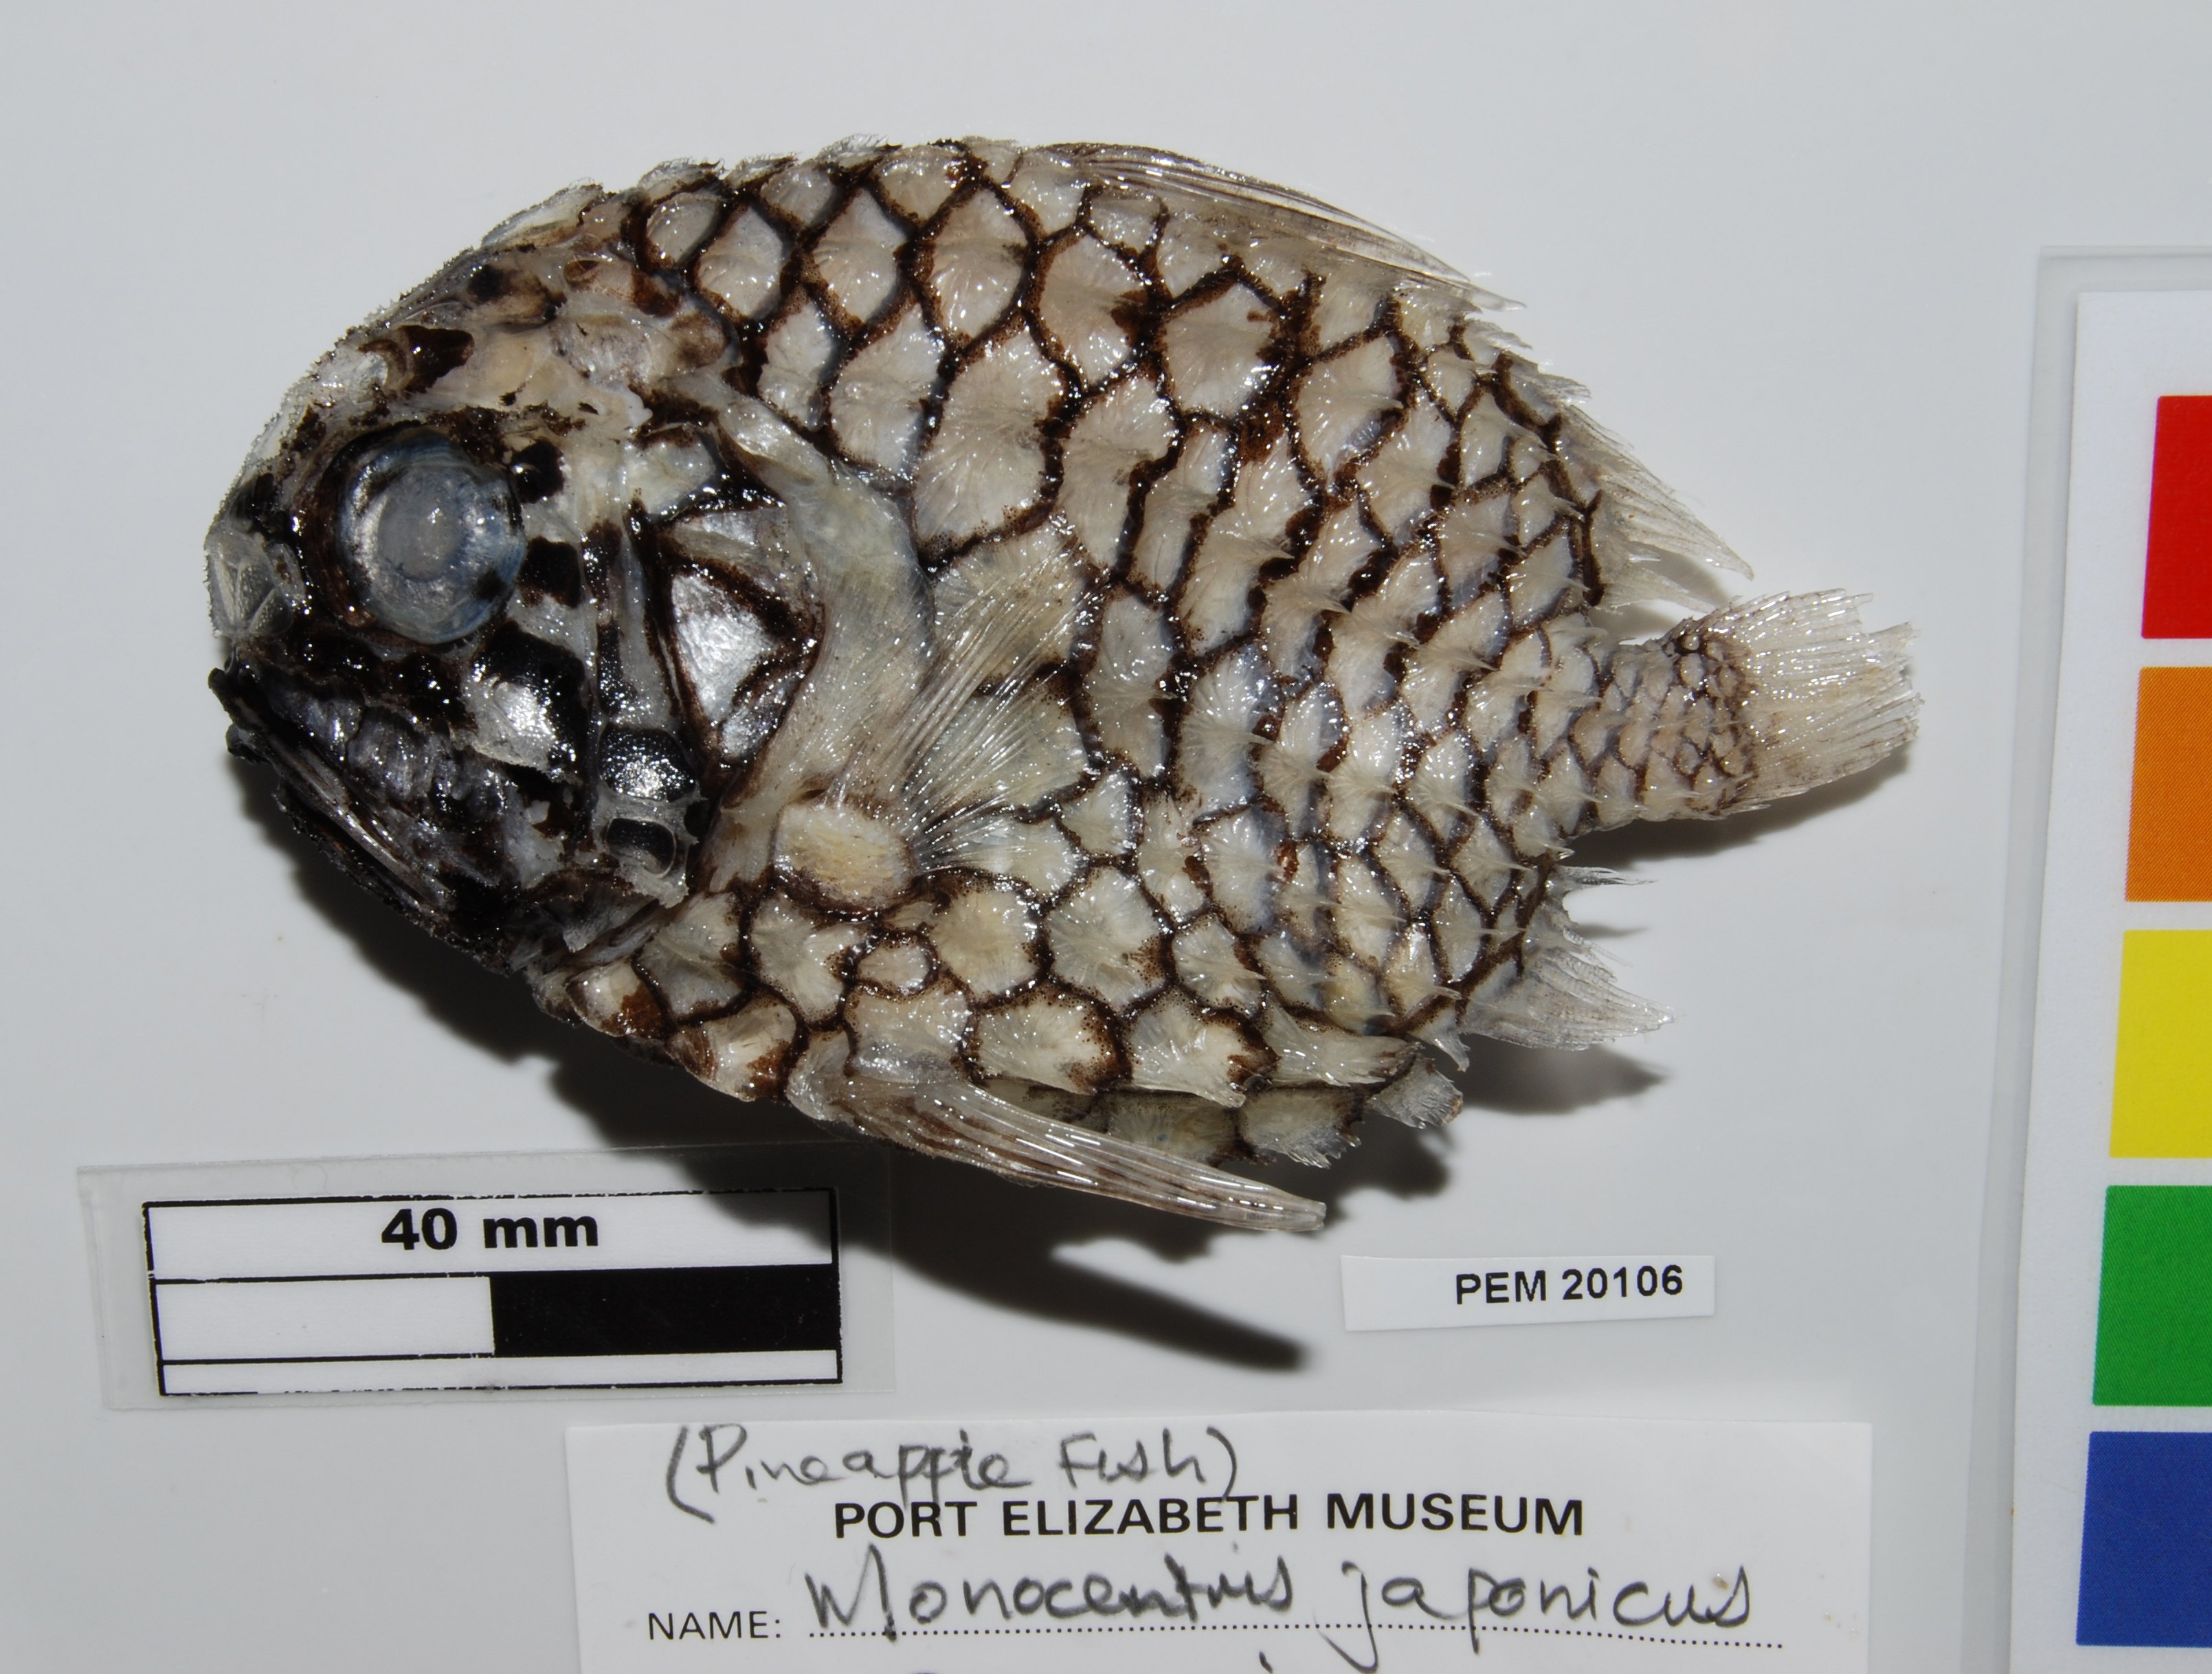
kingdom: Animalia
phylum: Chordata
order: Beryciformes
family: Monocentridae
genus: Monocentris
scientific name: Monocentris japonica
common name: Pineconefish
